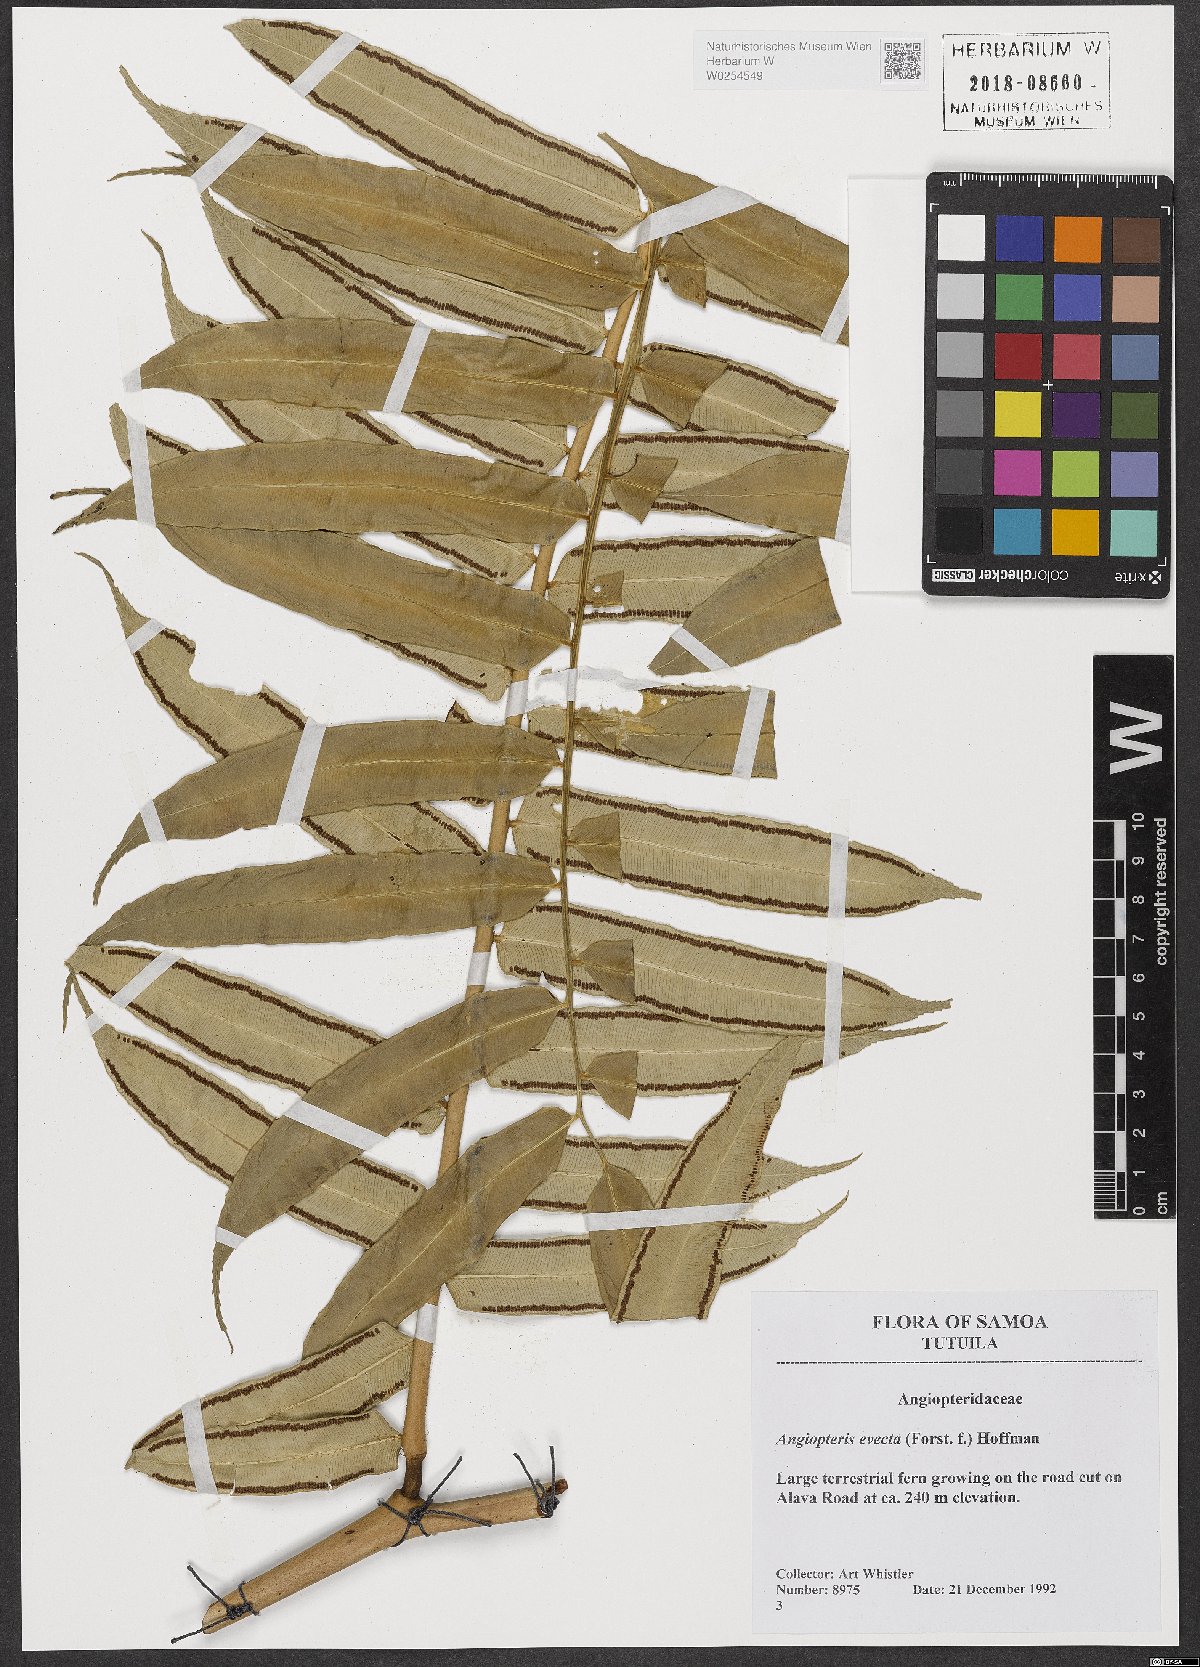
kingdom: Plantae
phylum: Tracheophyta
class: Polypodiopsida
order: Marattiales
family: Marattiaceae
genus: Angiopteris
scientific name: Angiopteris evecta
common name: Mule's-foot fern
